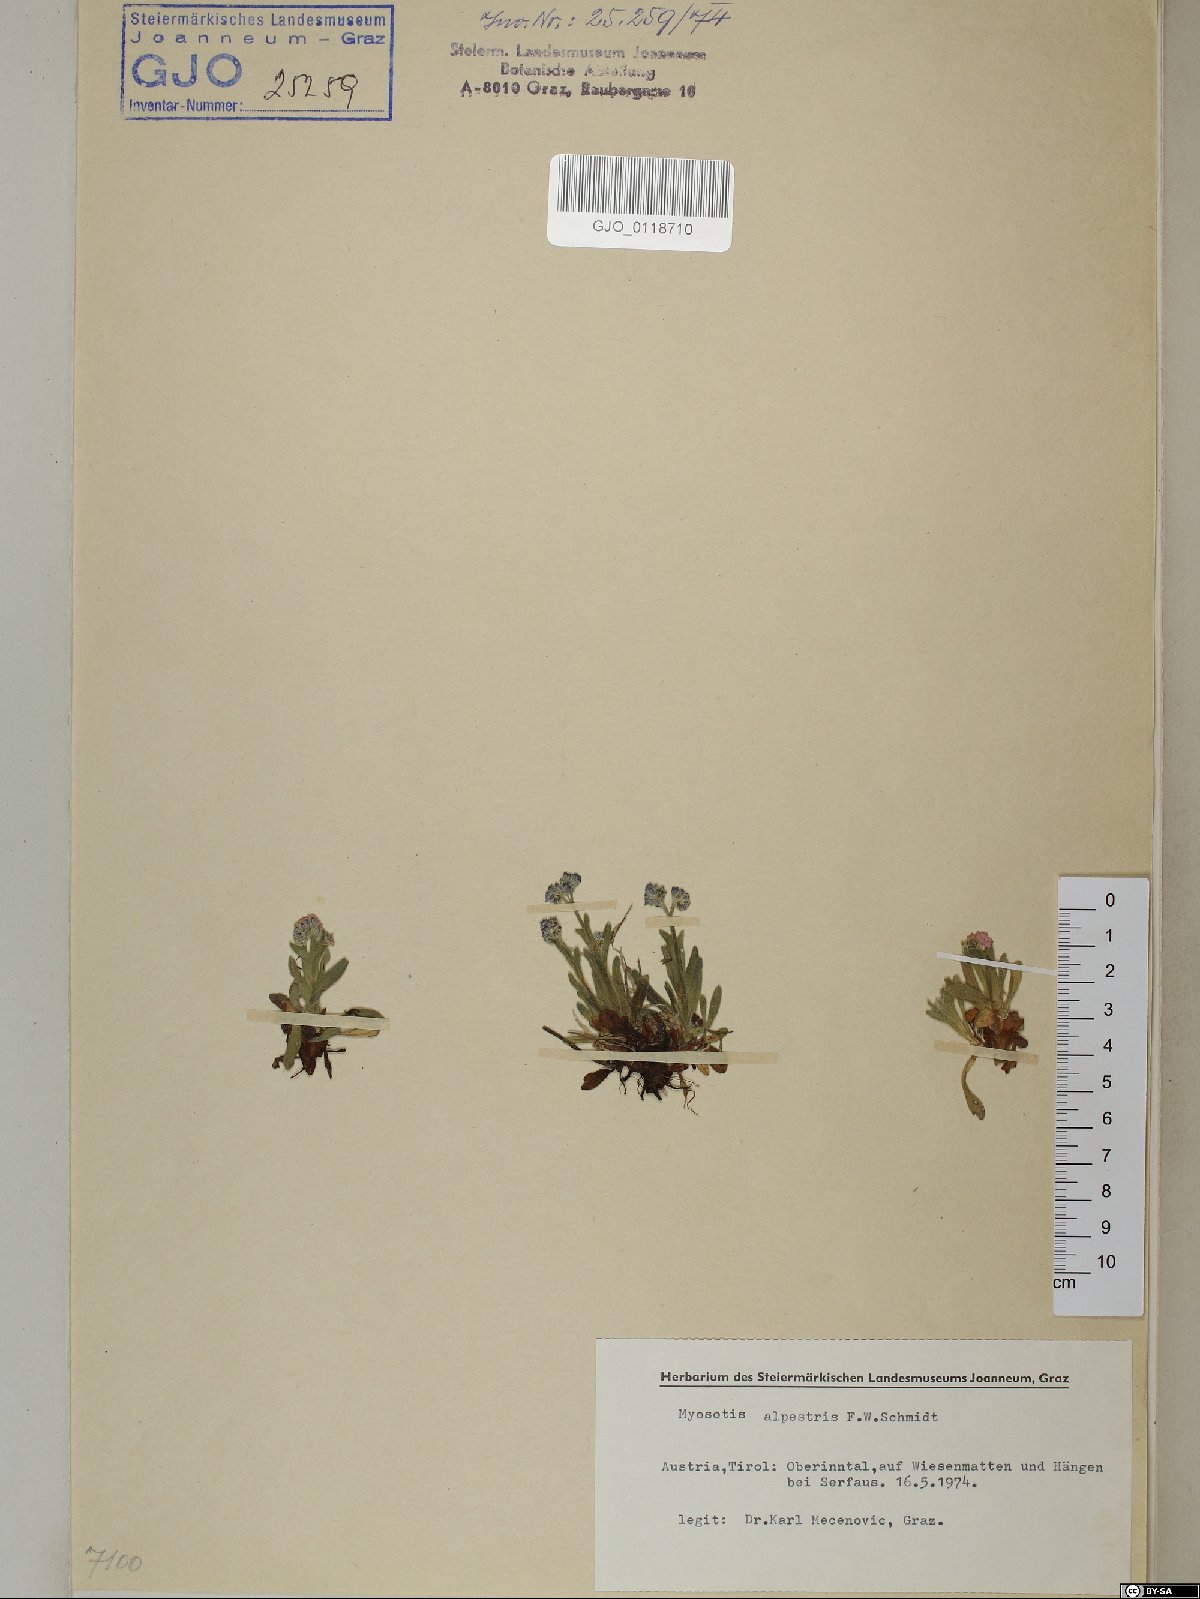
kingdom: Plantae
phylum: Tracheophyta
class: Magnoliopsida
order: Boraginales
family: Boraginaceae
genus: Myosotis
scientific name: Myosotis alpestris
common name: Alpine forget-me-not
